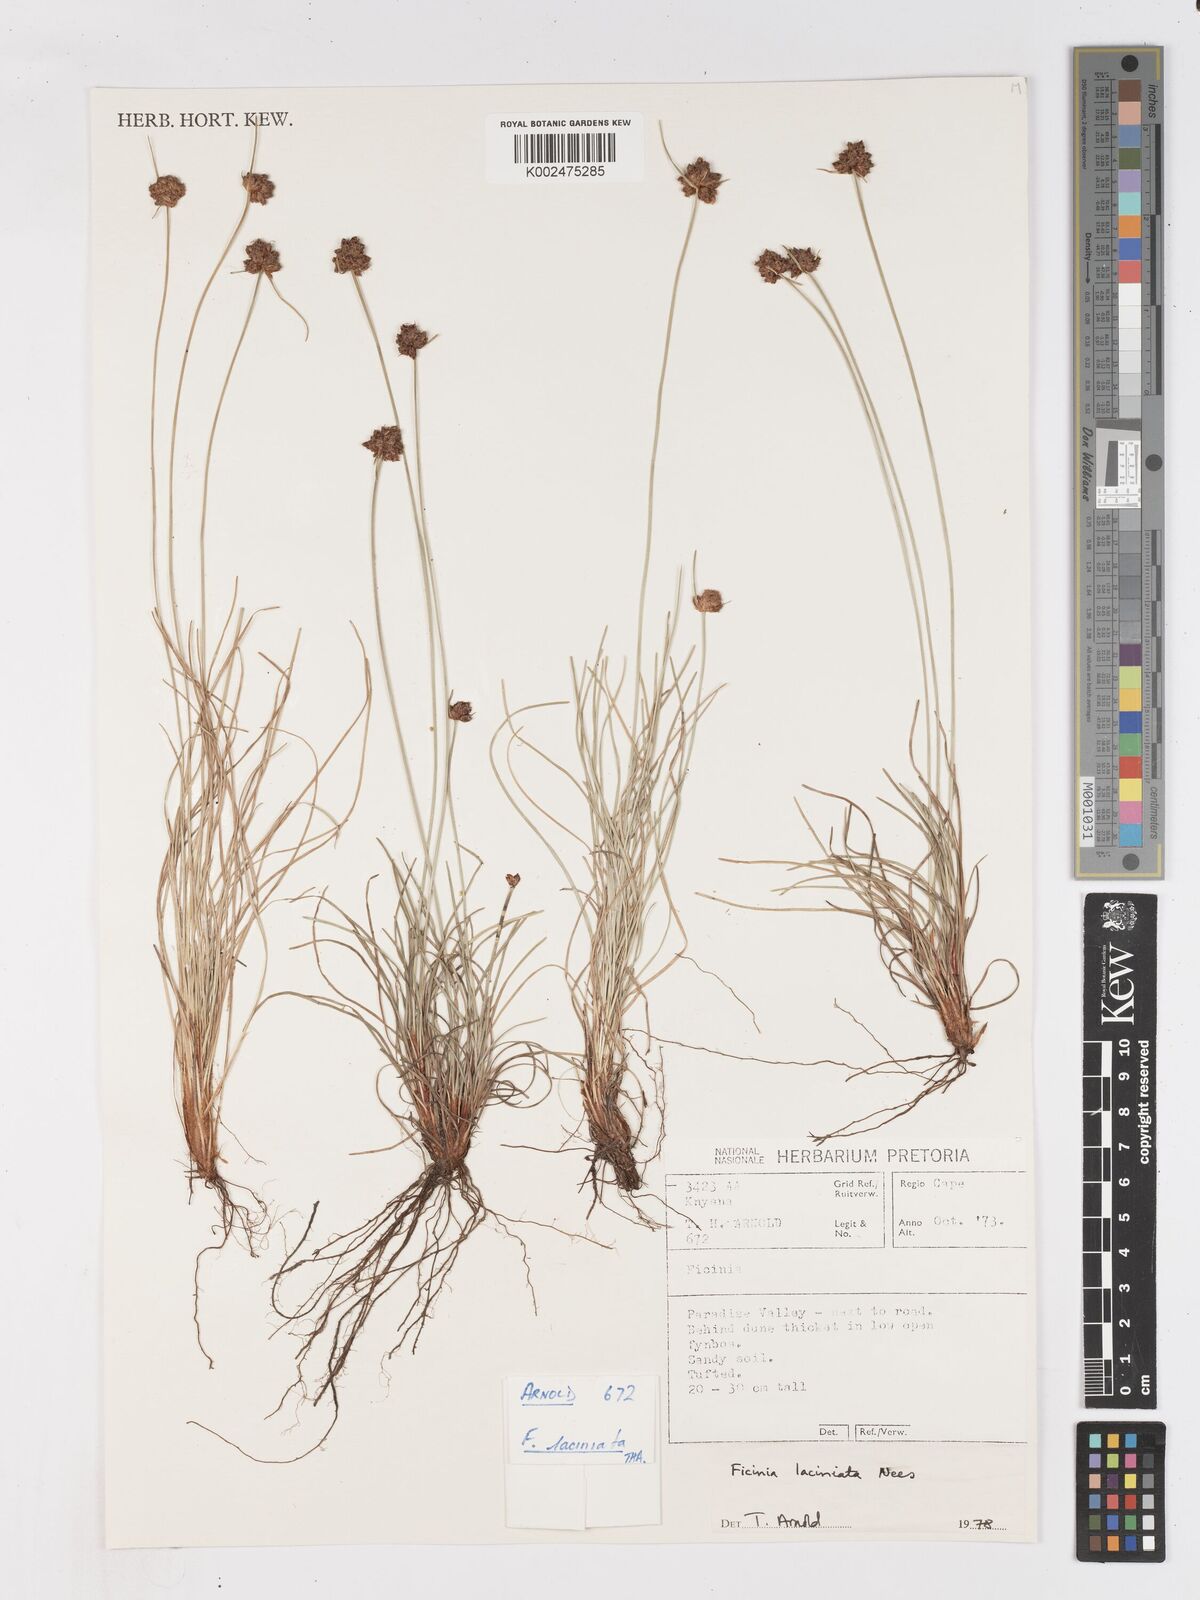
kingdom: Plantae
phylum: Tracheophyta
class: Liliopsida
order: Poales
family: Cyperaceae
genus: Ficinia
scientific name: Ficinia laciniata
